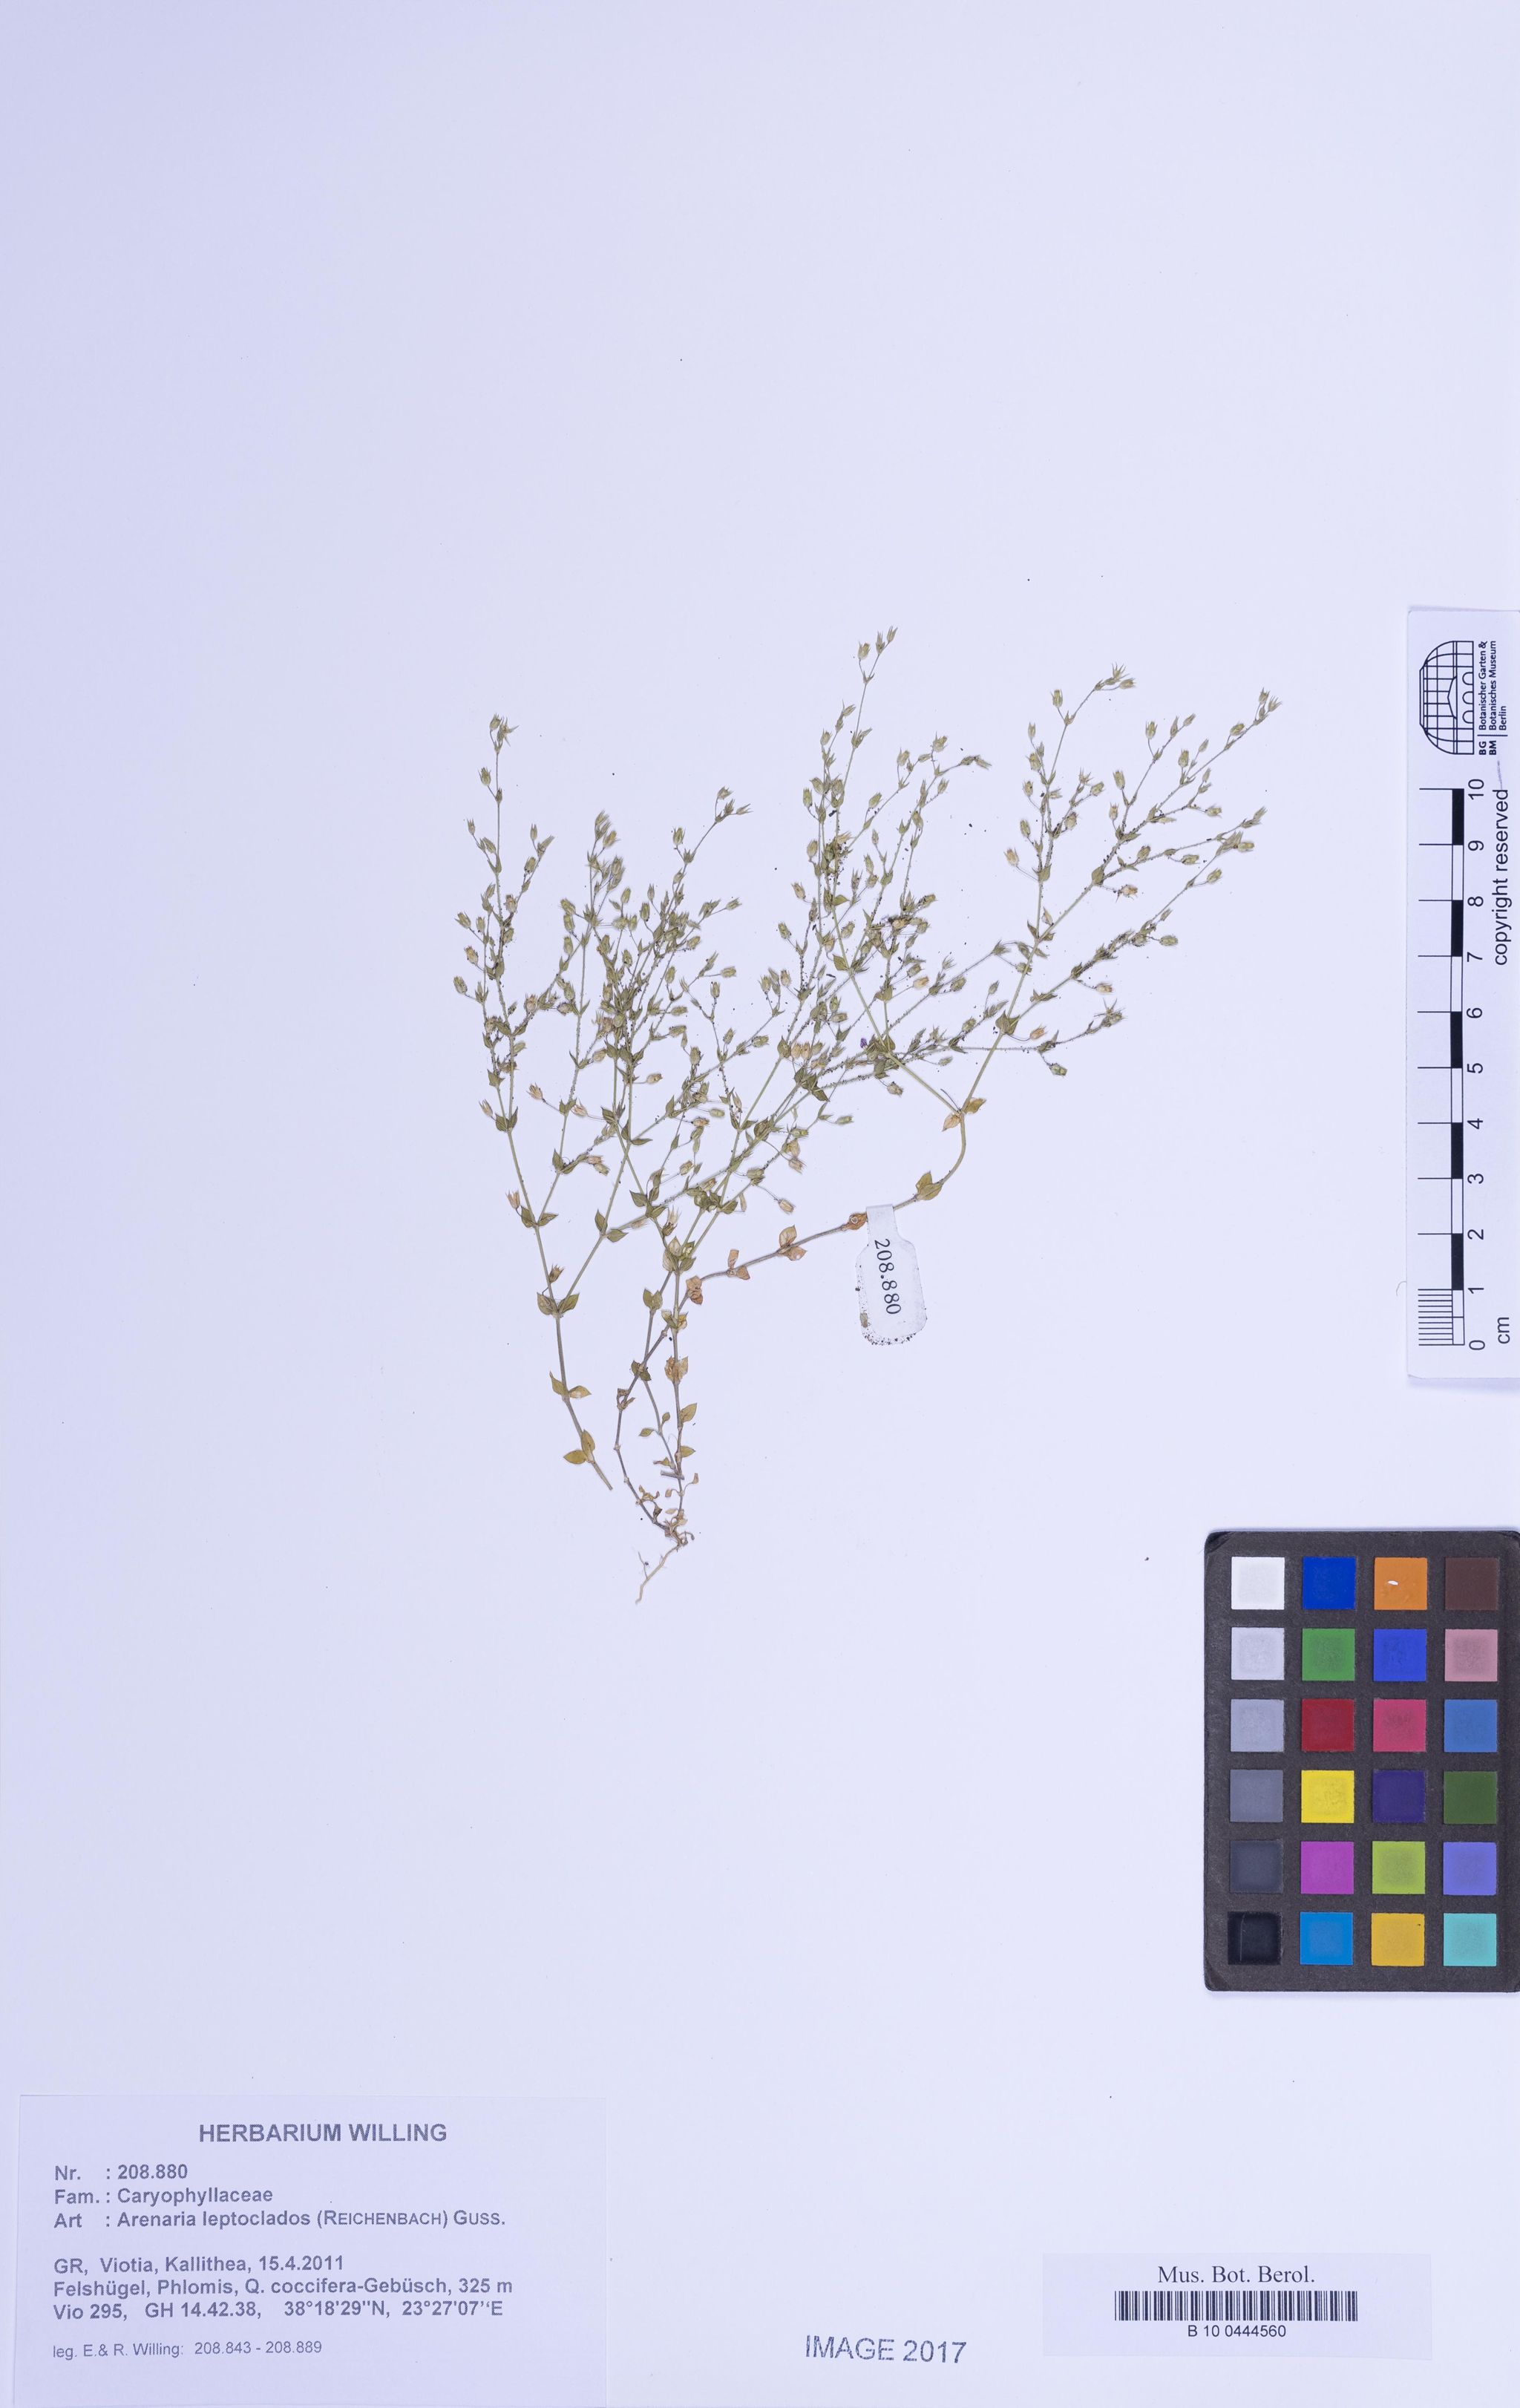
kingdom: Plantae
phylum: Tracheophyta
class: Magnoliopsida
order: Caryophyllales
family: Caryophyllaceae
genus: Arenaria
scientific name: Arenaria leptoclados
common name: Thyme-leaved sandwort
